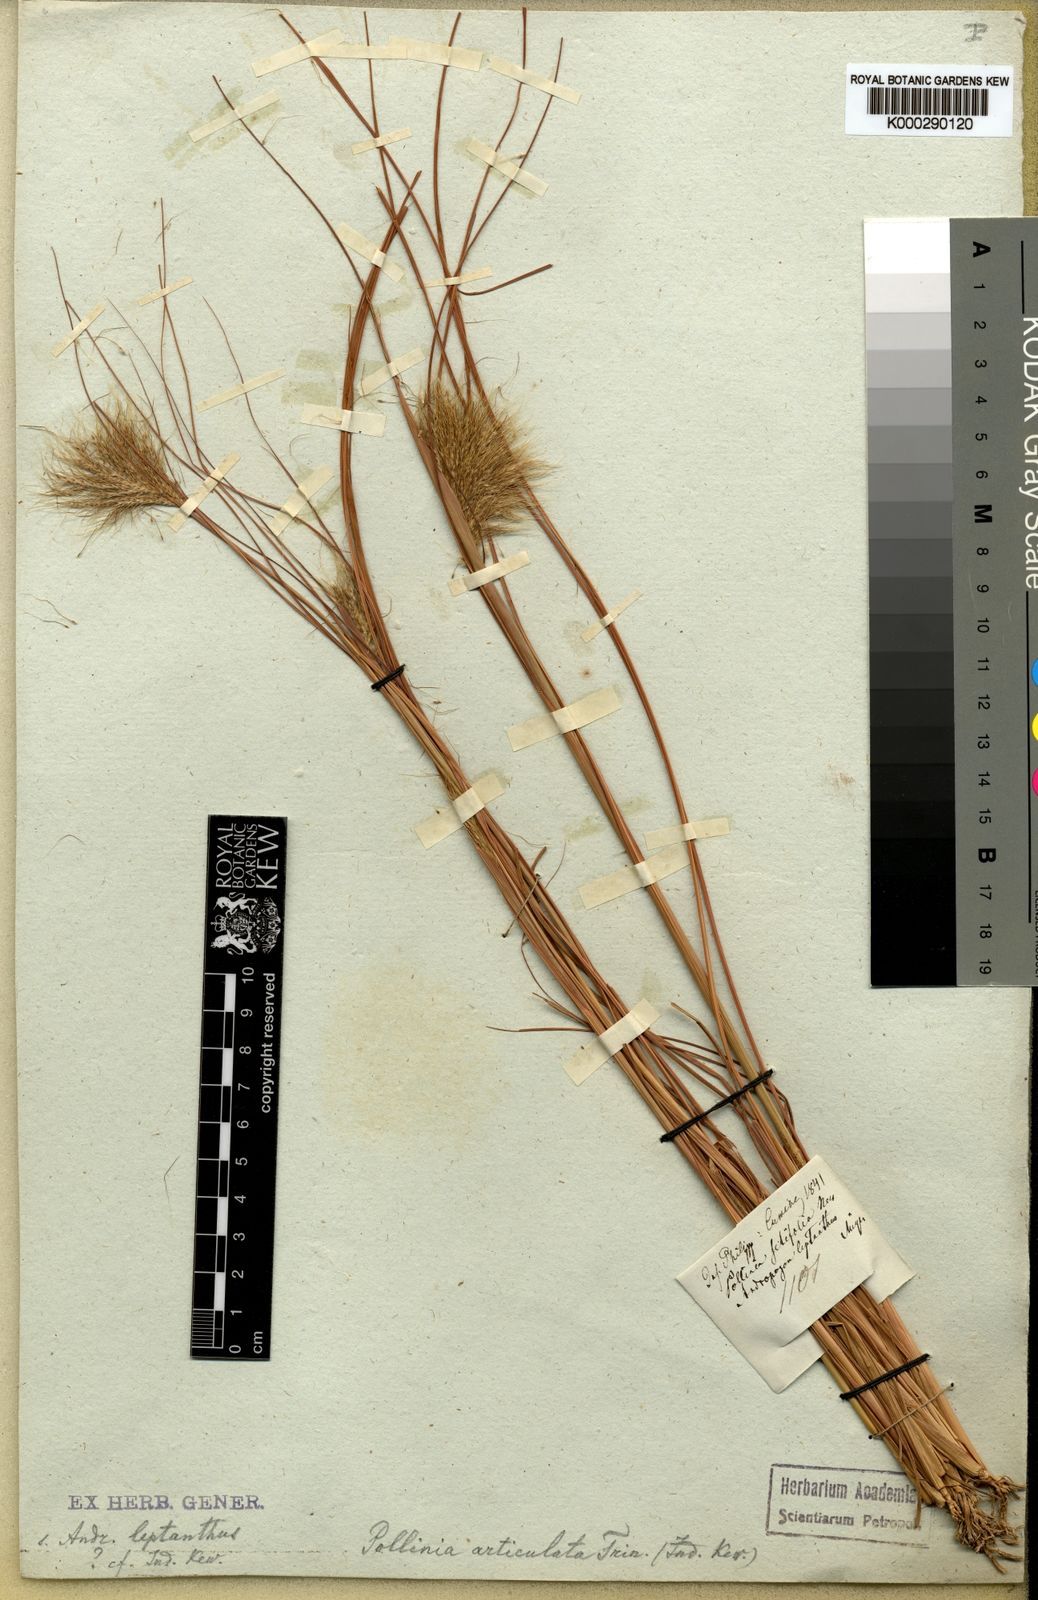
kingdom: Plantae
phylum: Tracheophyta
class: Liliopsida
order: Poales
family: Poaceae
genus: Pseudopogonatherum
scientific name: Pseudopogonatherum contortum
